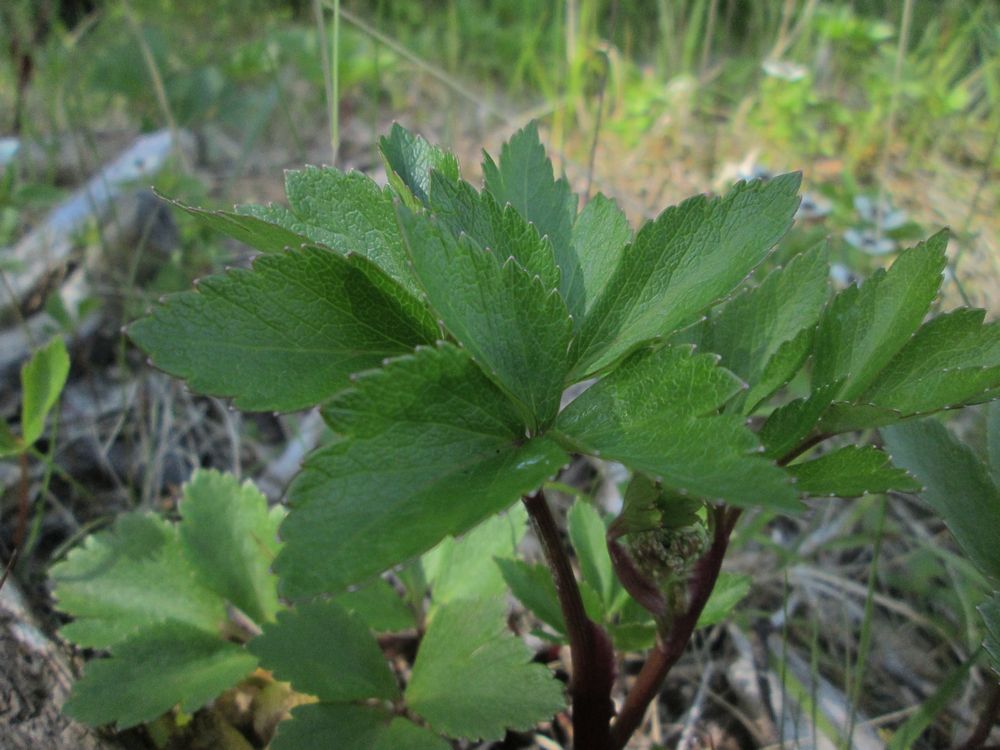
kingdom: Plantae
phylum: Tracheophyta
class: Magnoliopsida
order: Apiales
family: Apiaceae
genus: Ligusticum
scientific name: Ligusticum scothicum
